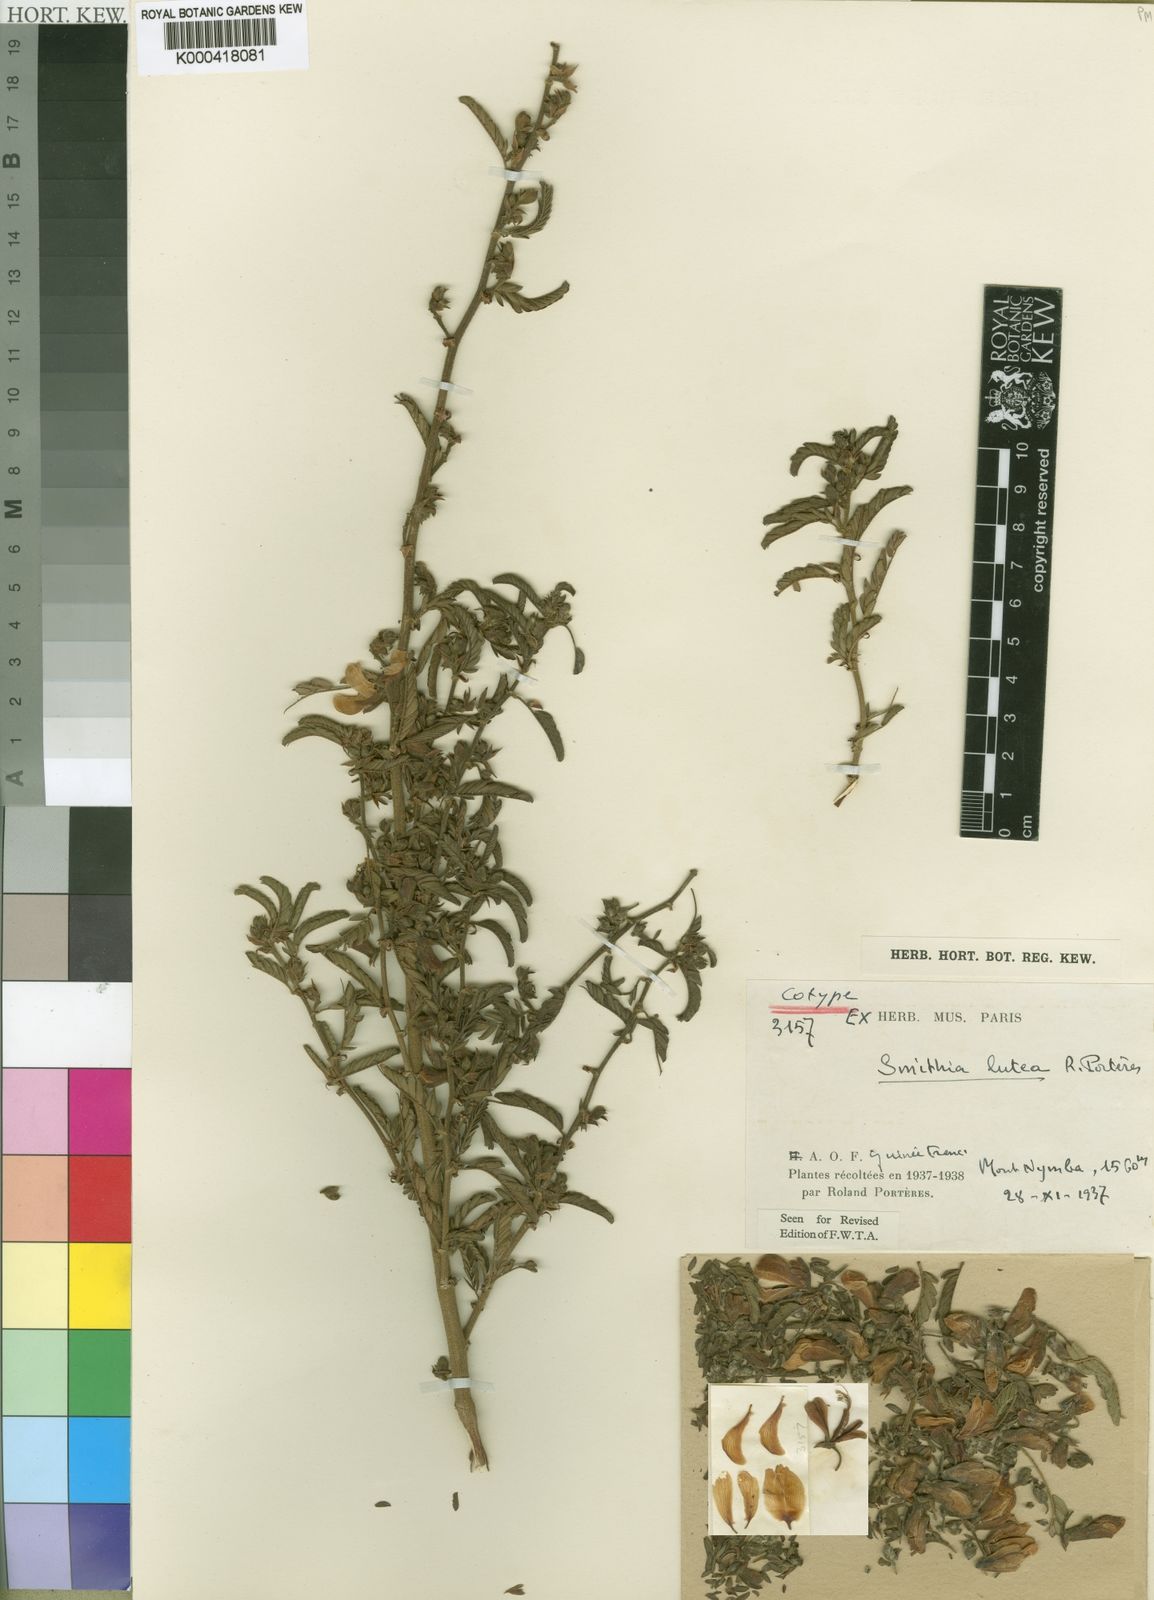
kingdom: Plantae
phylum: Tracheophyta
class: Magnoliopsida
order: Fabales
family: Fabaceae
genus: Kotschya
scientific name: Kotschya
